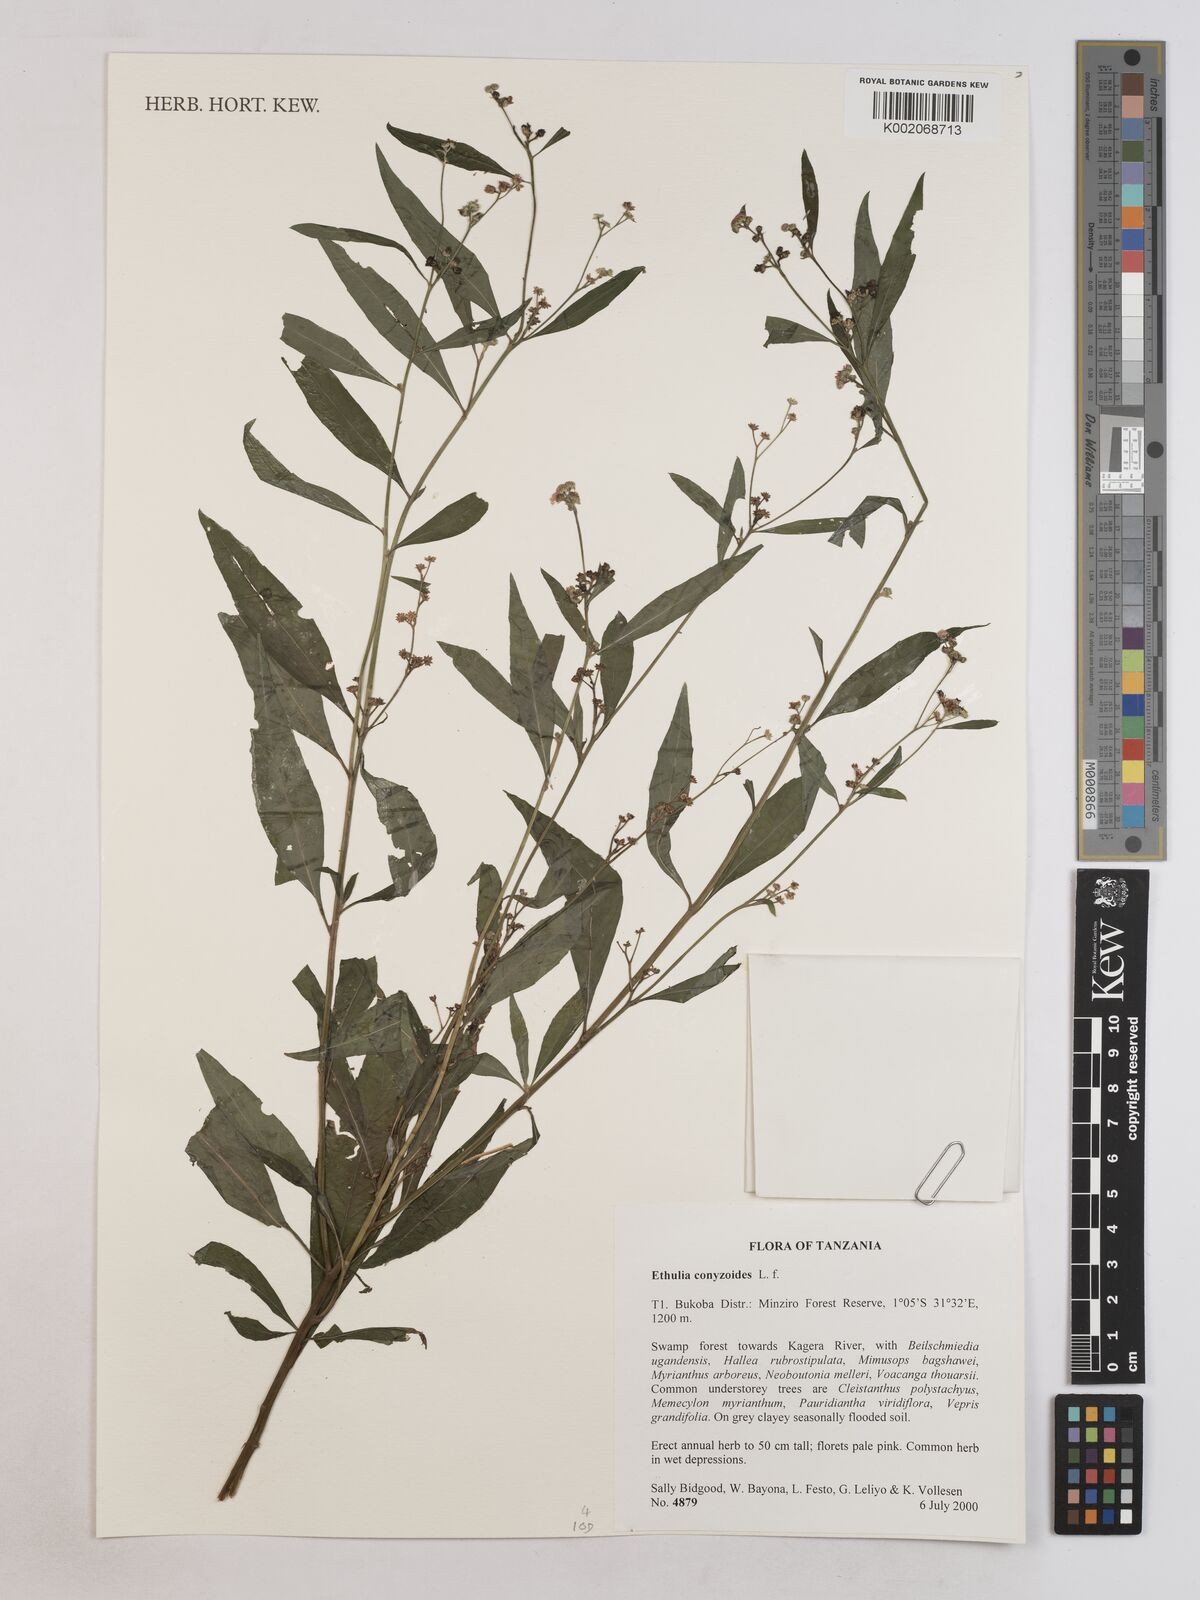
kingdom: Plantae
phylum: Tracheophyta
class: Magnoliopsida
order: Asterales
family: Asteraceae
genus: Ethulia
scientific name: Ethulia
